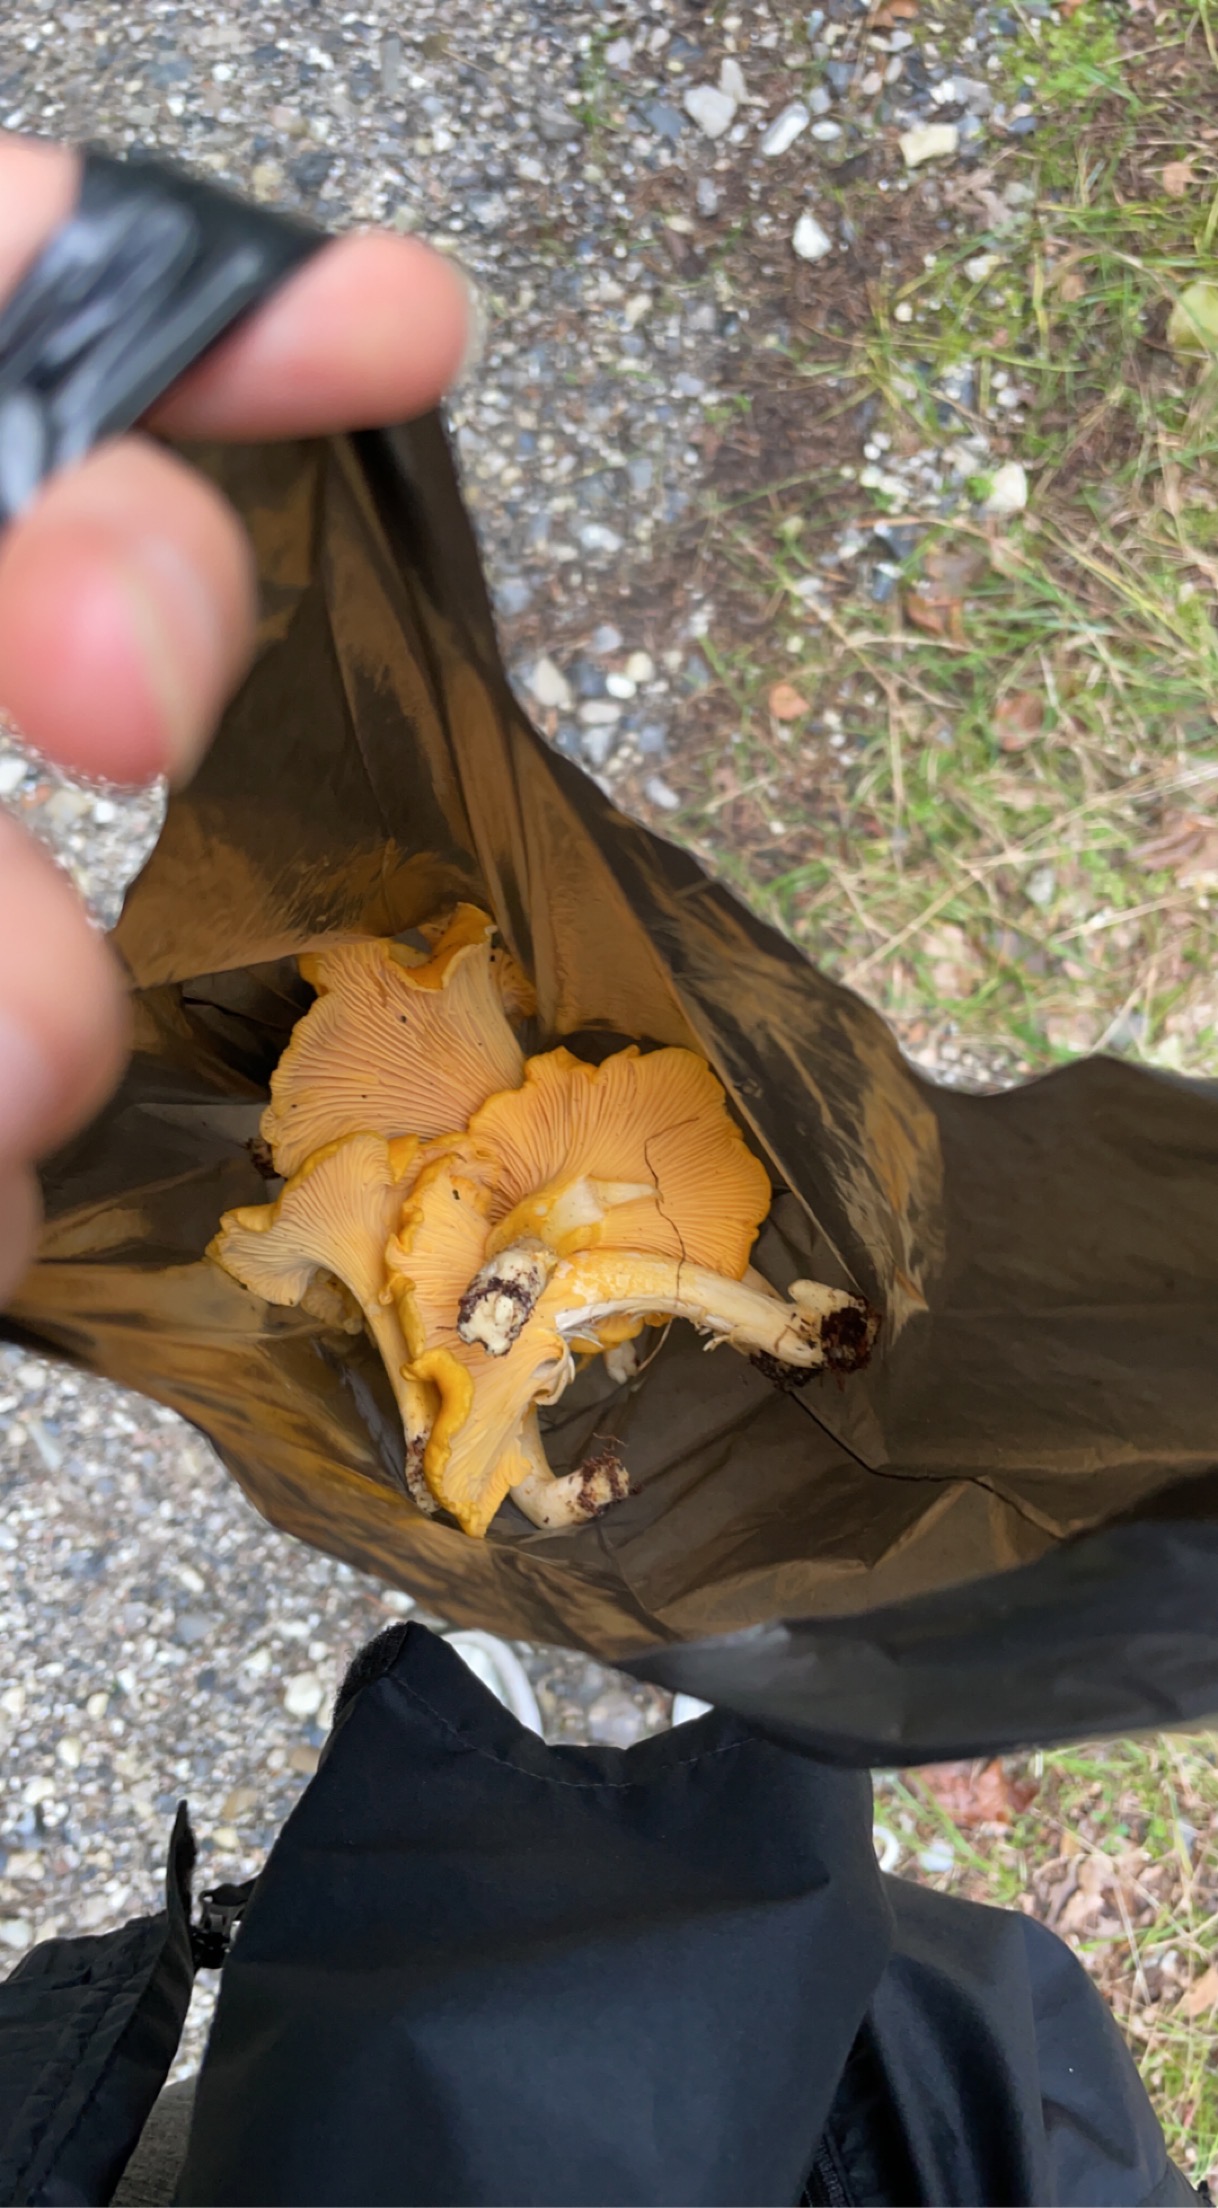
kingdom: Fungi
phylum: Basidiomycota
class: Agaricomycetes
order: Cantharellales
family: Hydnaceae
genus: Cantharellus
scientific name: Cantharellus cibarius
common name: almindelig kantarel
